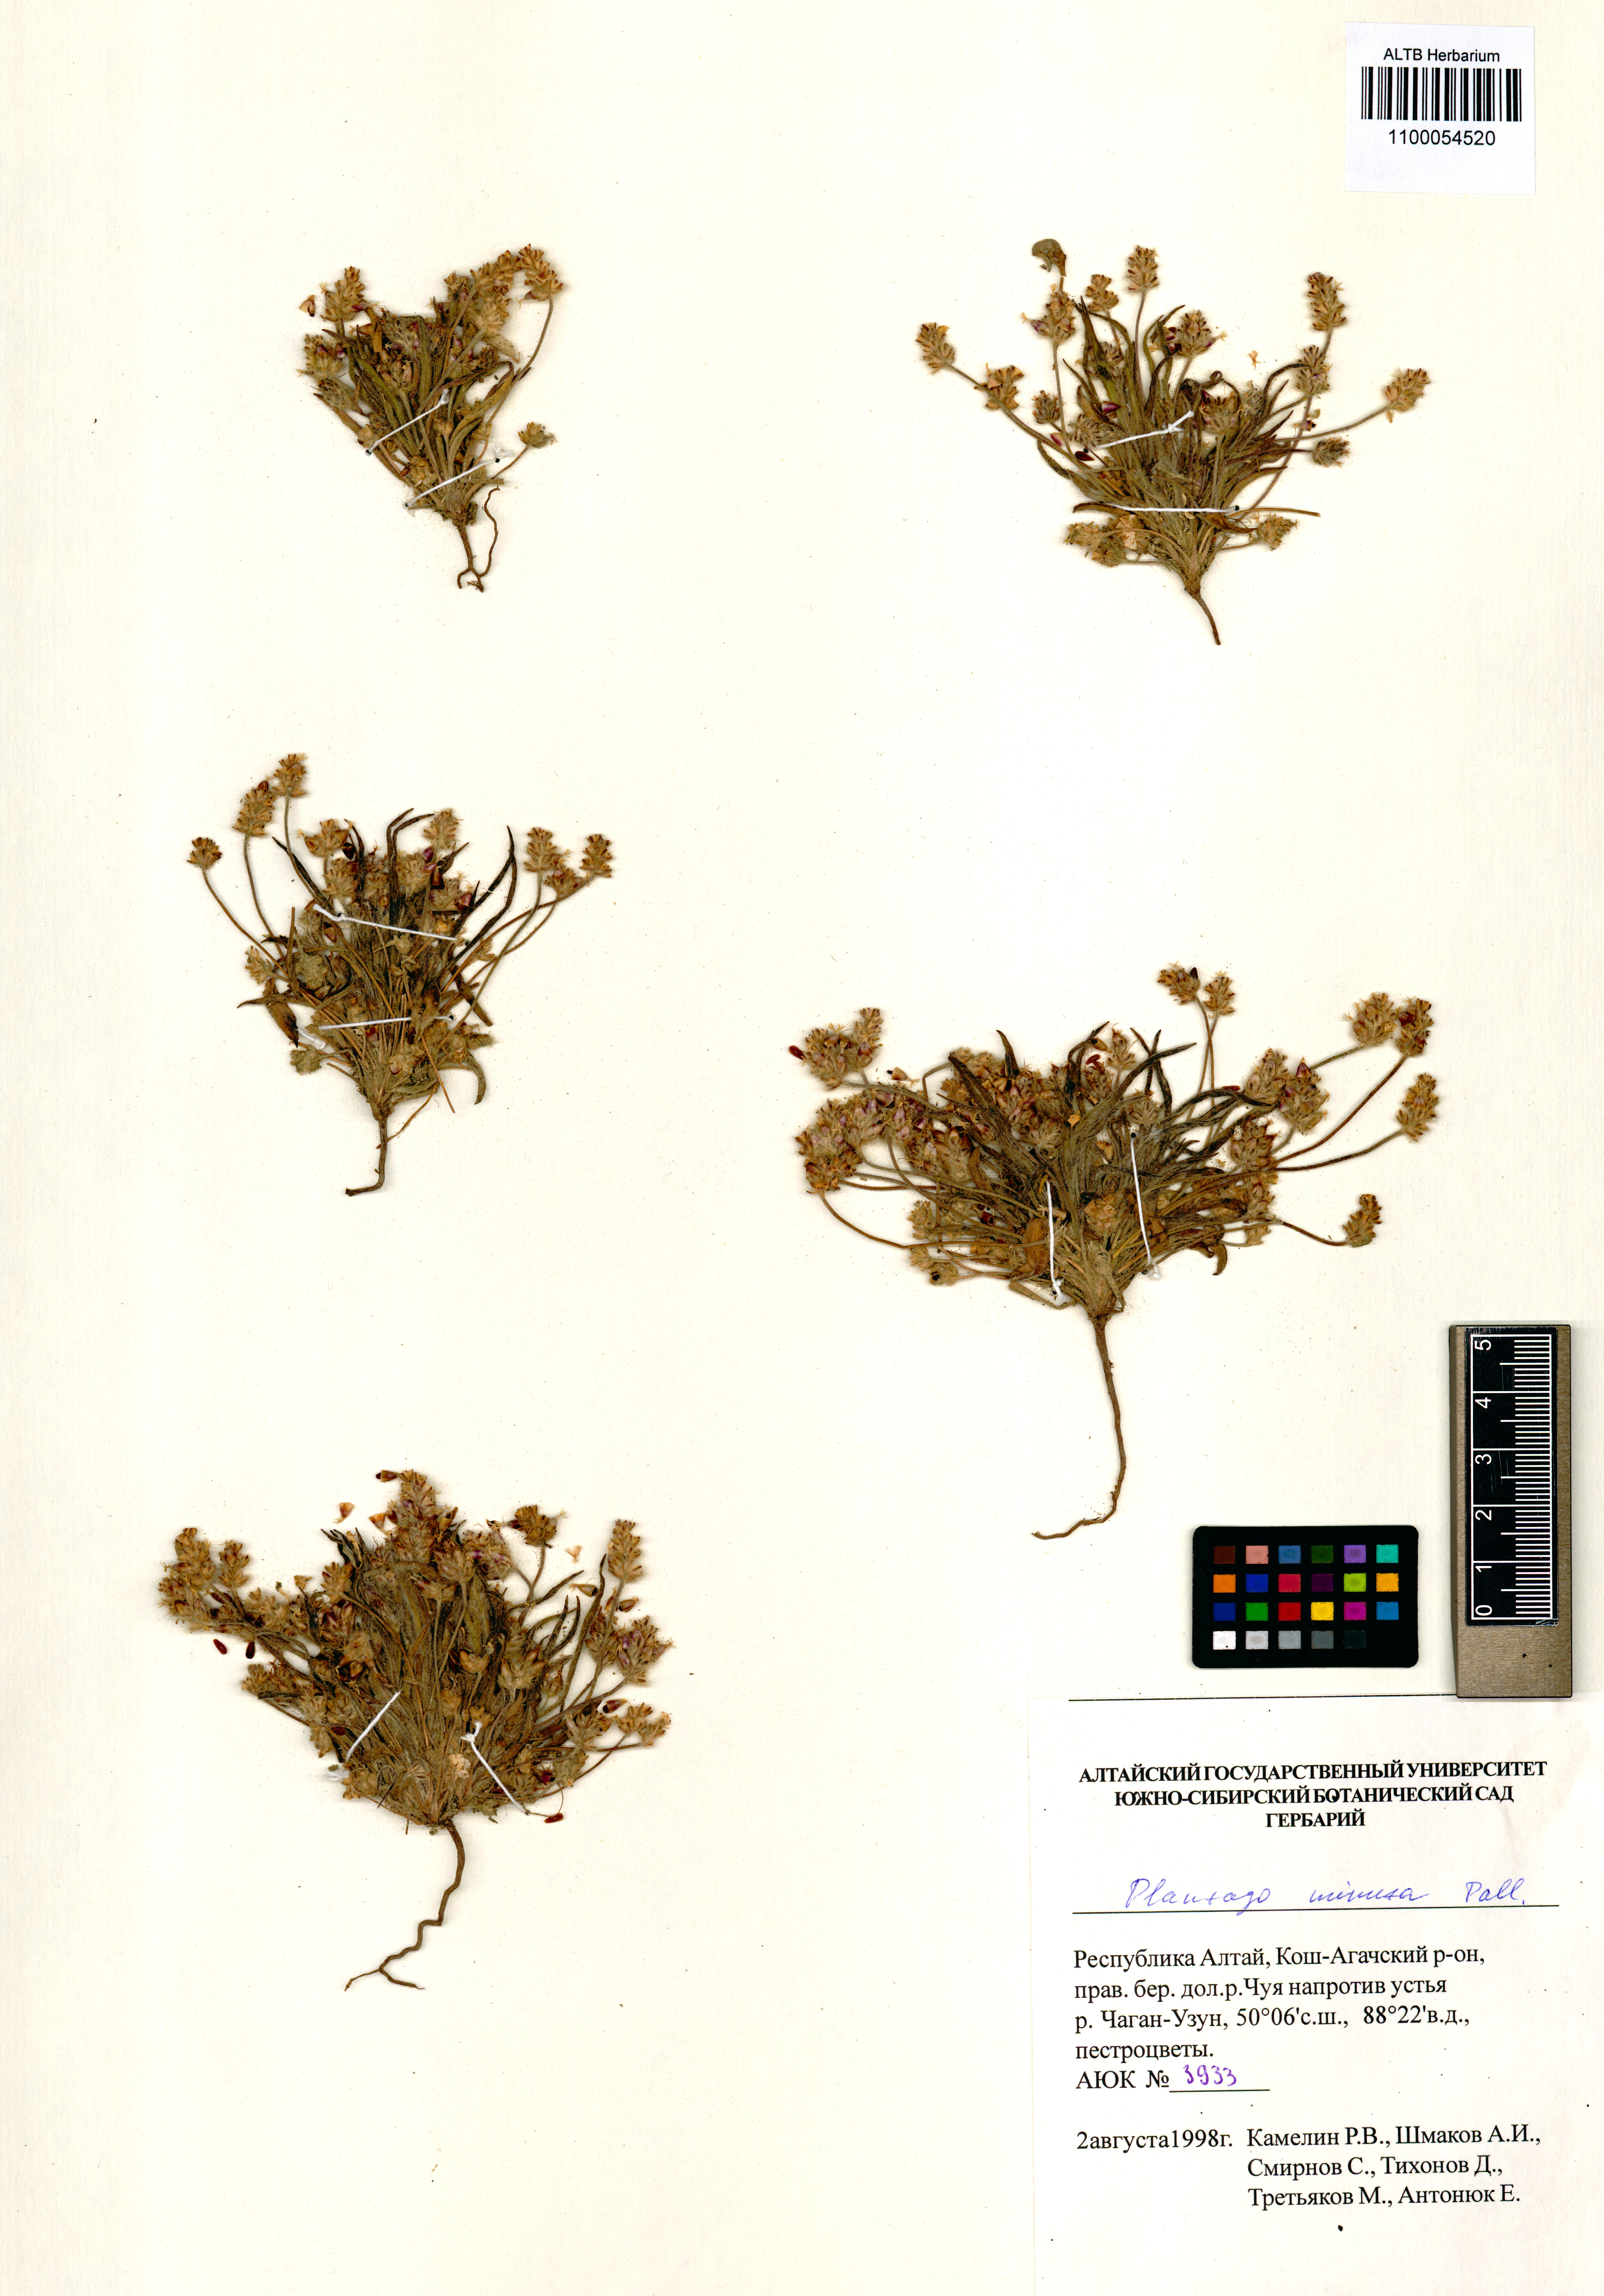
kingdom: Plantae
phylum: Tracheophyta
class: Magnoliopsida
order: Lamiales
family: Plantaginaceae
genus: Plantago
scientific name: Plantago minuta
